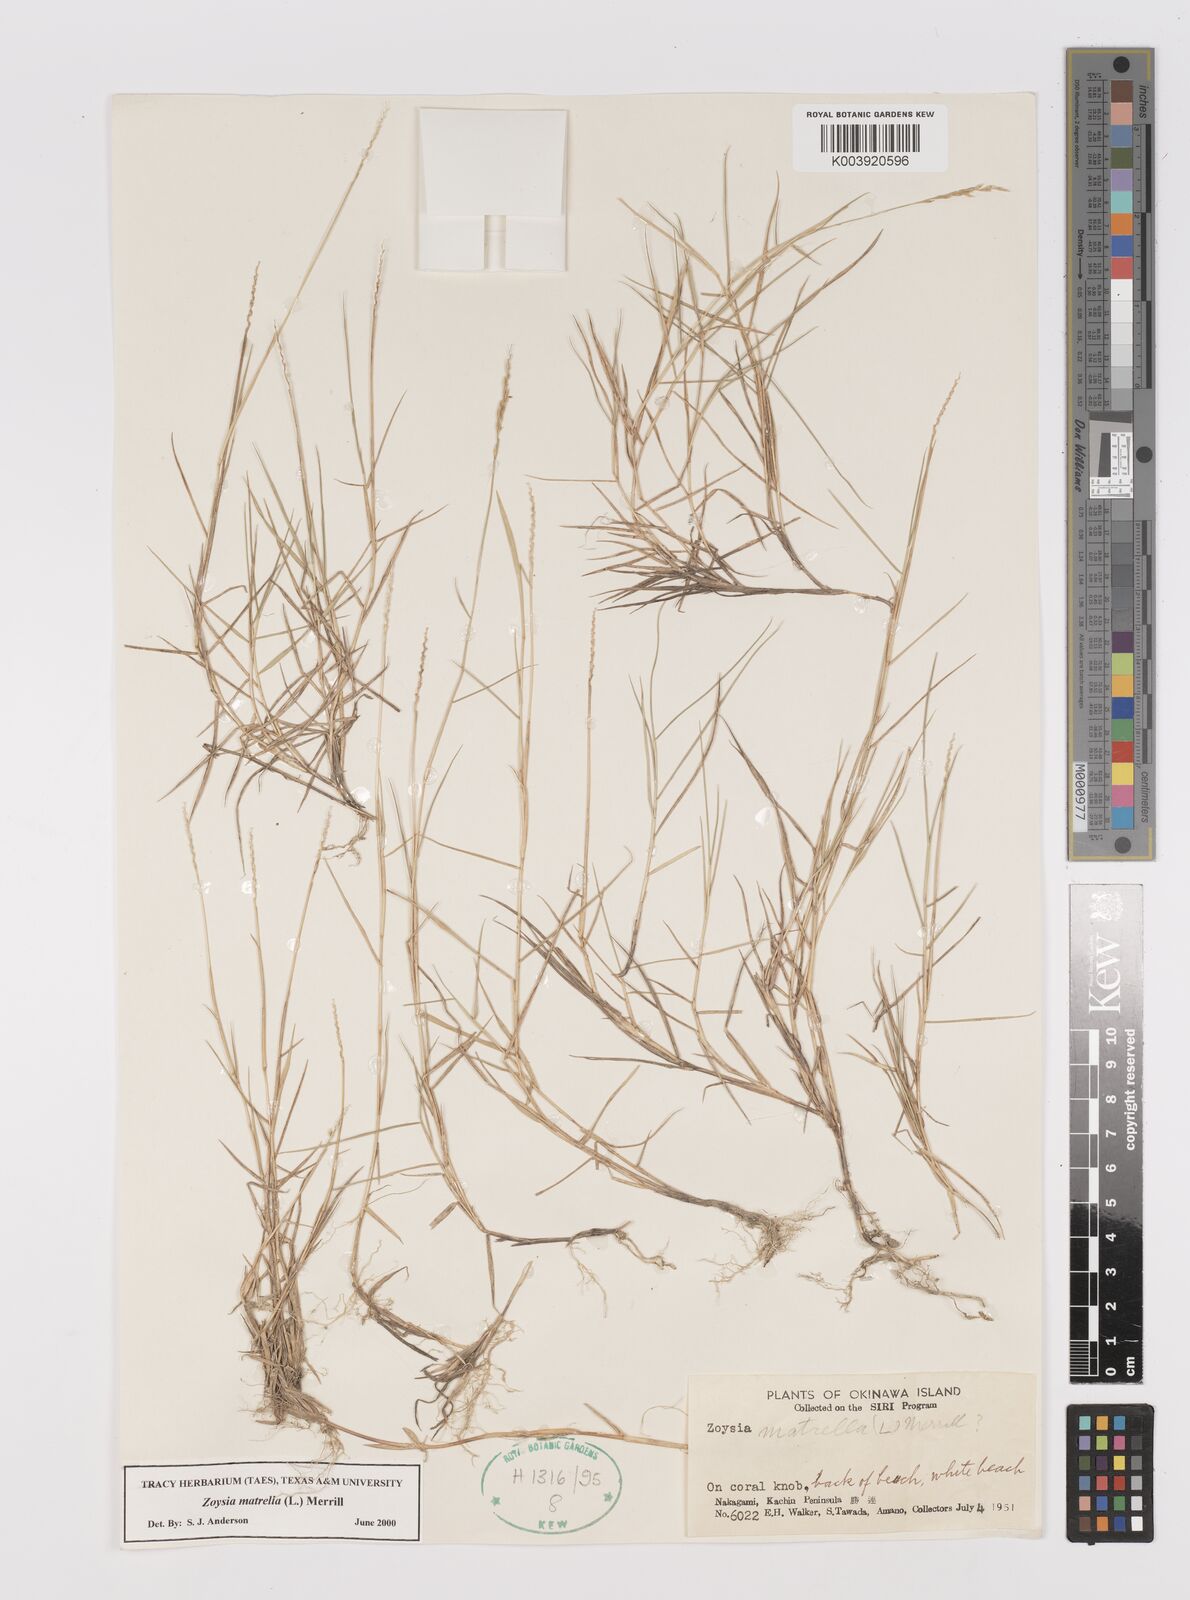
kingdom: Plantae
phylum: Tracheophyta
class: Liliopsida
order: Poales
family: Poaceae
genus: Zoysia
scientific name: Zoysia matrella
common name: Manila grass
